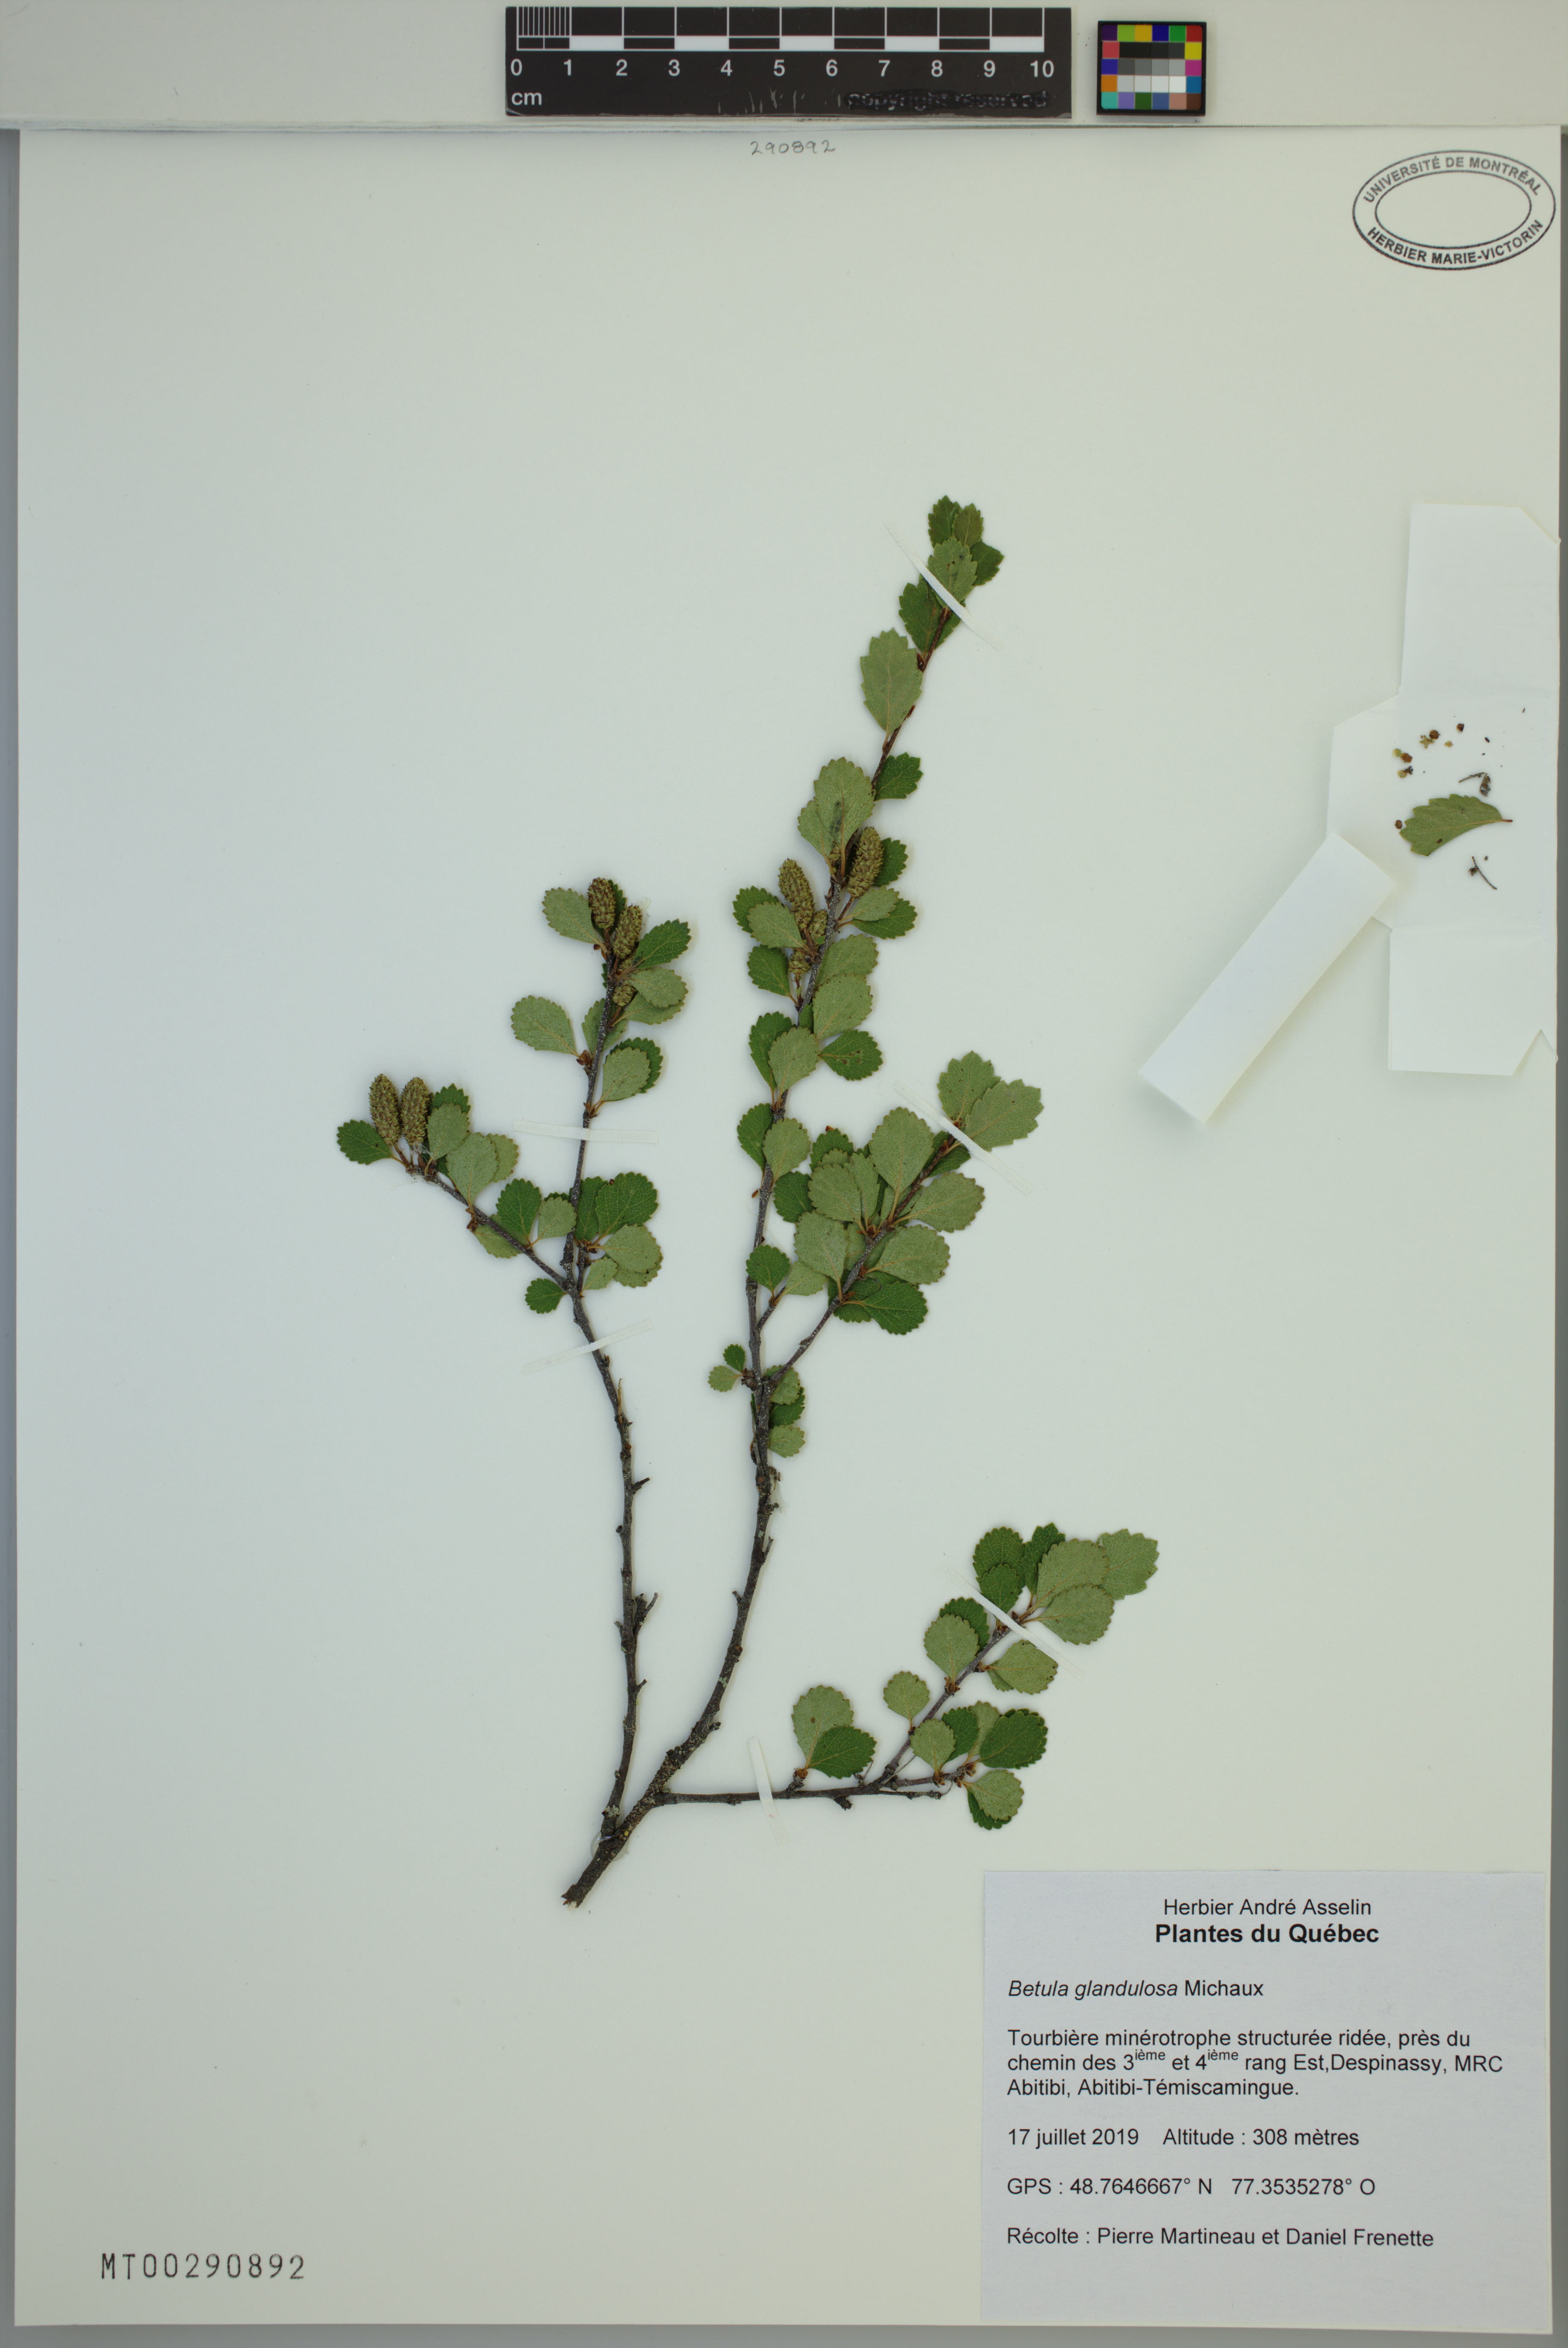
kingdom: Plantae
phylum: Tracheophyta
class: Magnoliopsida
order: Fagales
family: Betulaceae
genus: Betula
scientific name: Betula glandulosa
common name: Dwarf birch
